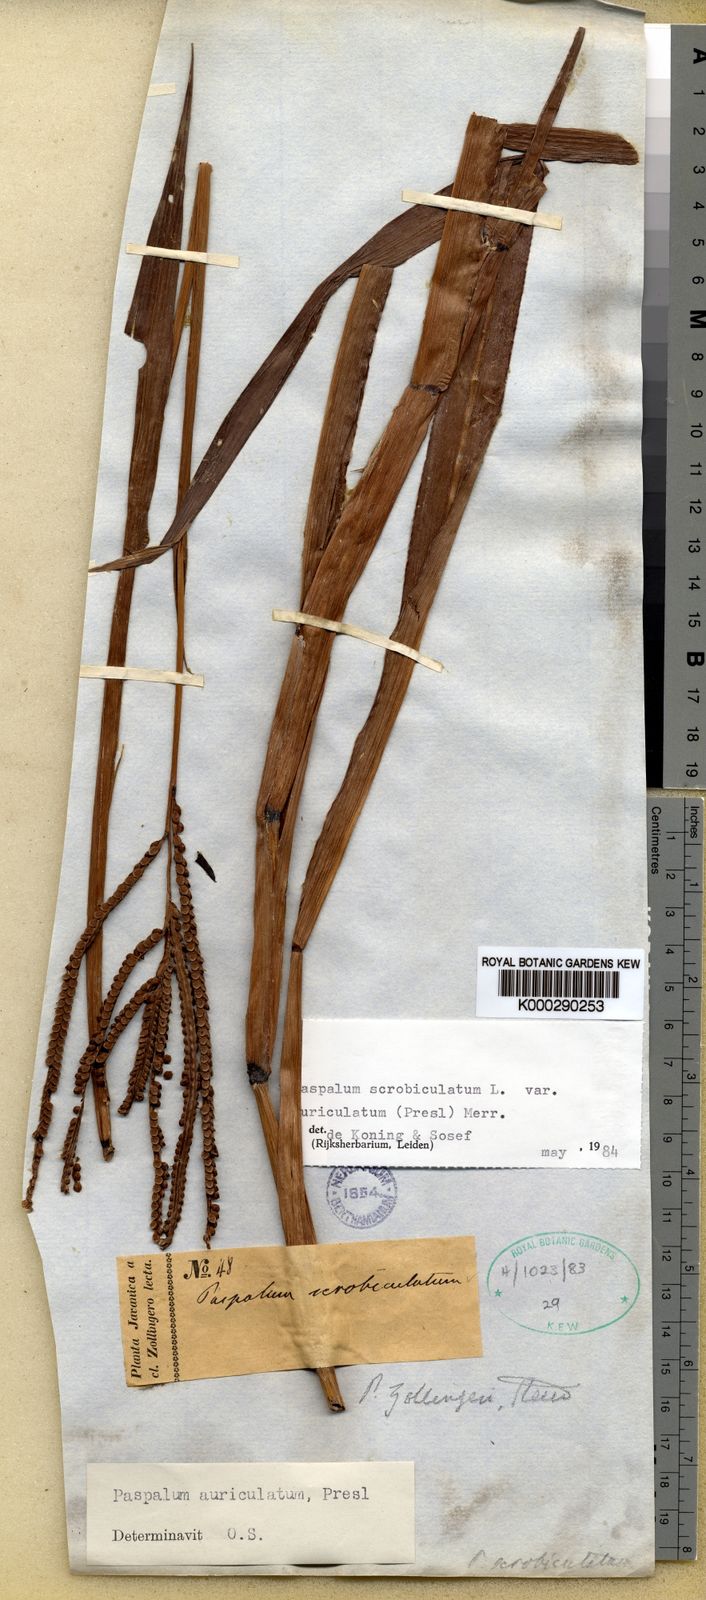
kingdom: Plantae
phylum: Tracheophyta
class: Liliopsida
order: Poales
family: Poaceae
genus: Paspalum
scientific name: Paspalum scrobiculatum
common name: Kodo millet
